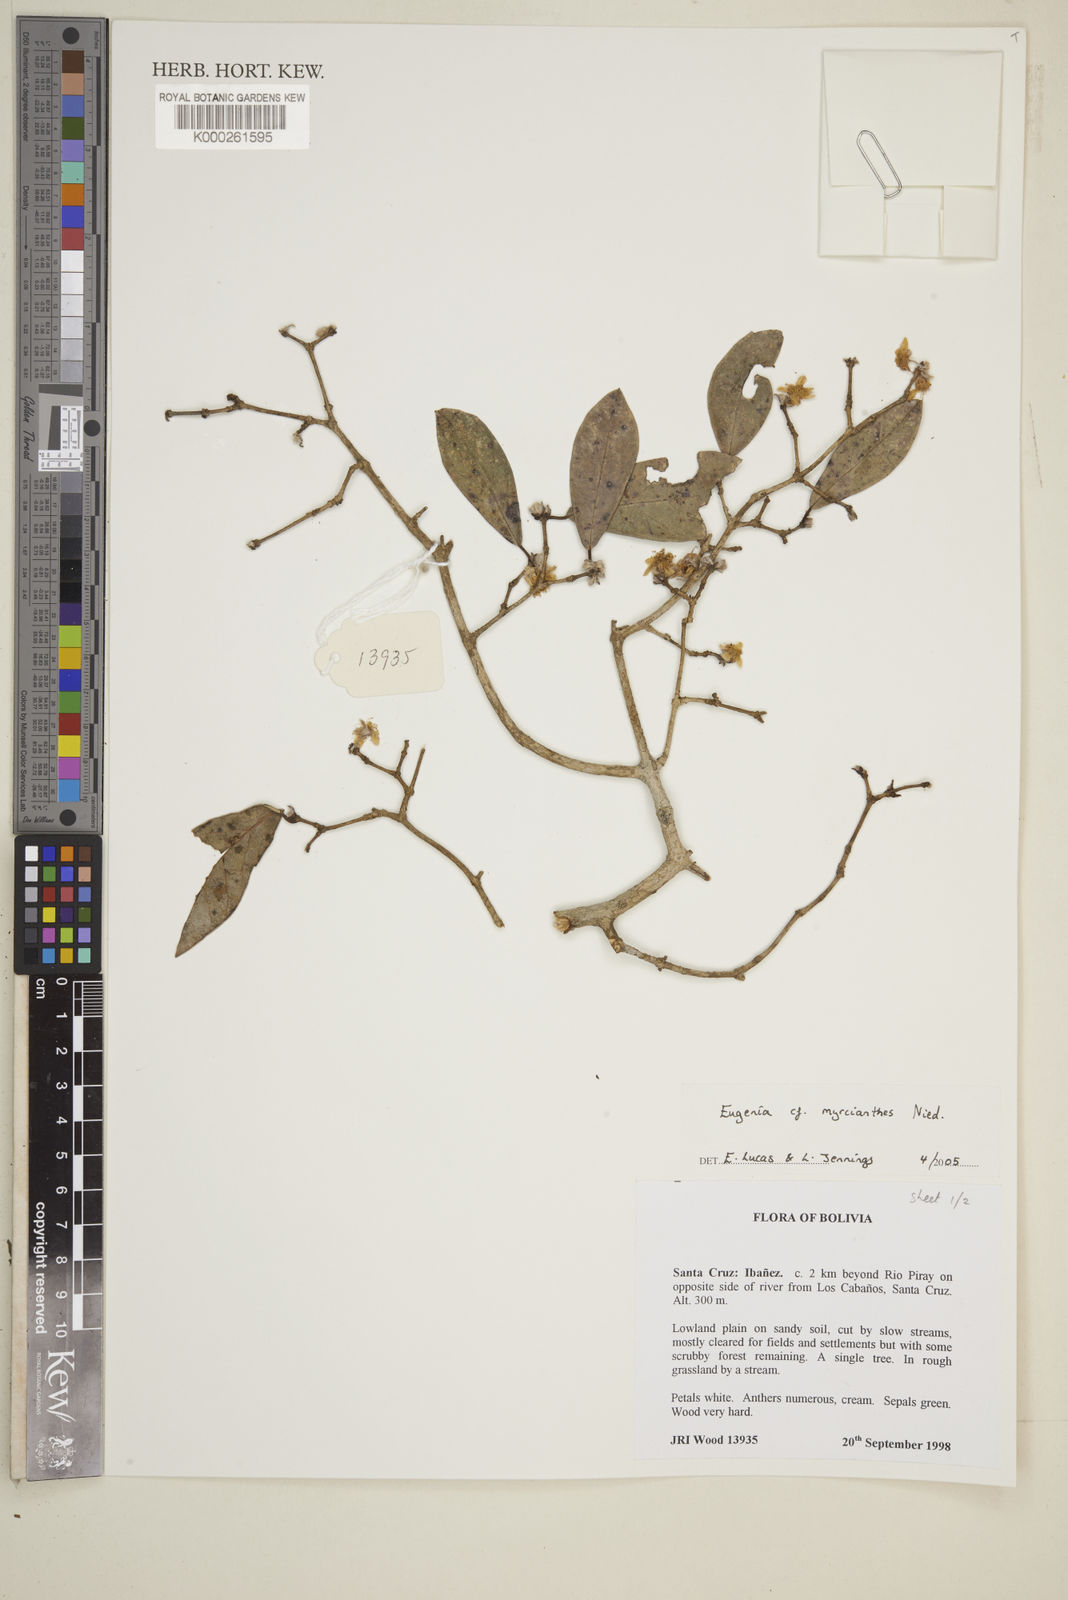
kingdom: Plantae
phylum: Tracheophyta
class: Magnoliopsida
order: Myrtales
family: Myrtaceae
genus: Eugenia
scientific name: Eugenia myrcianthes
